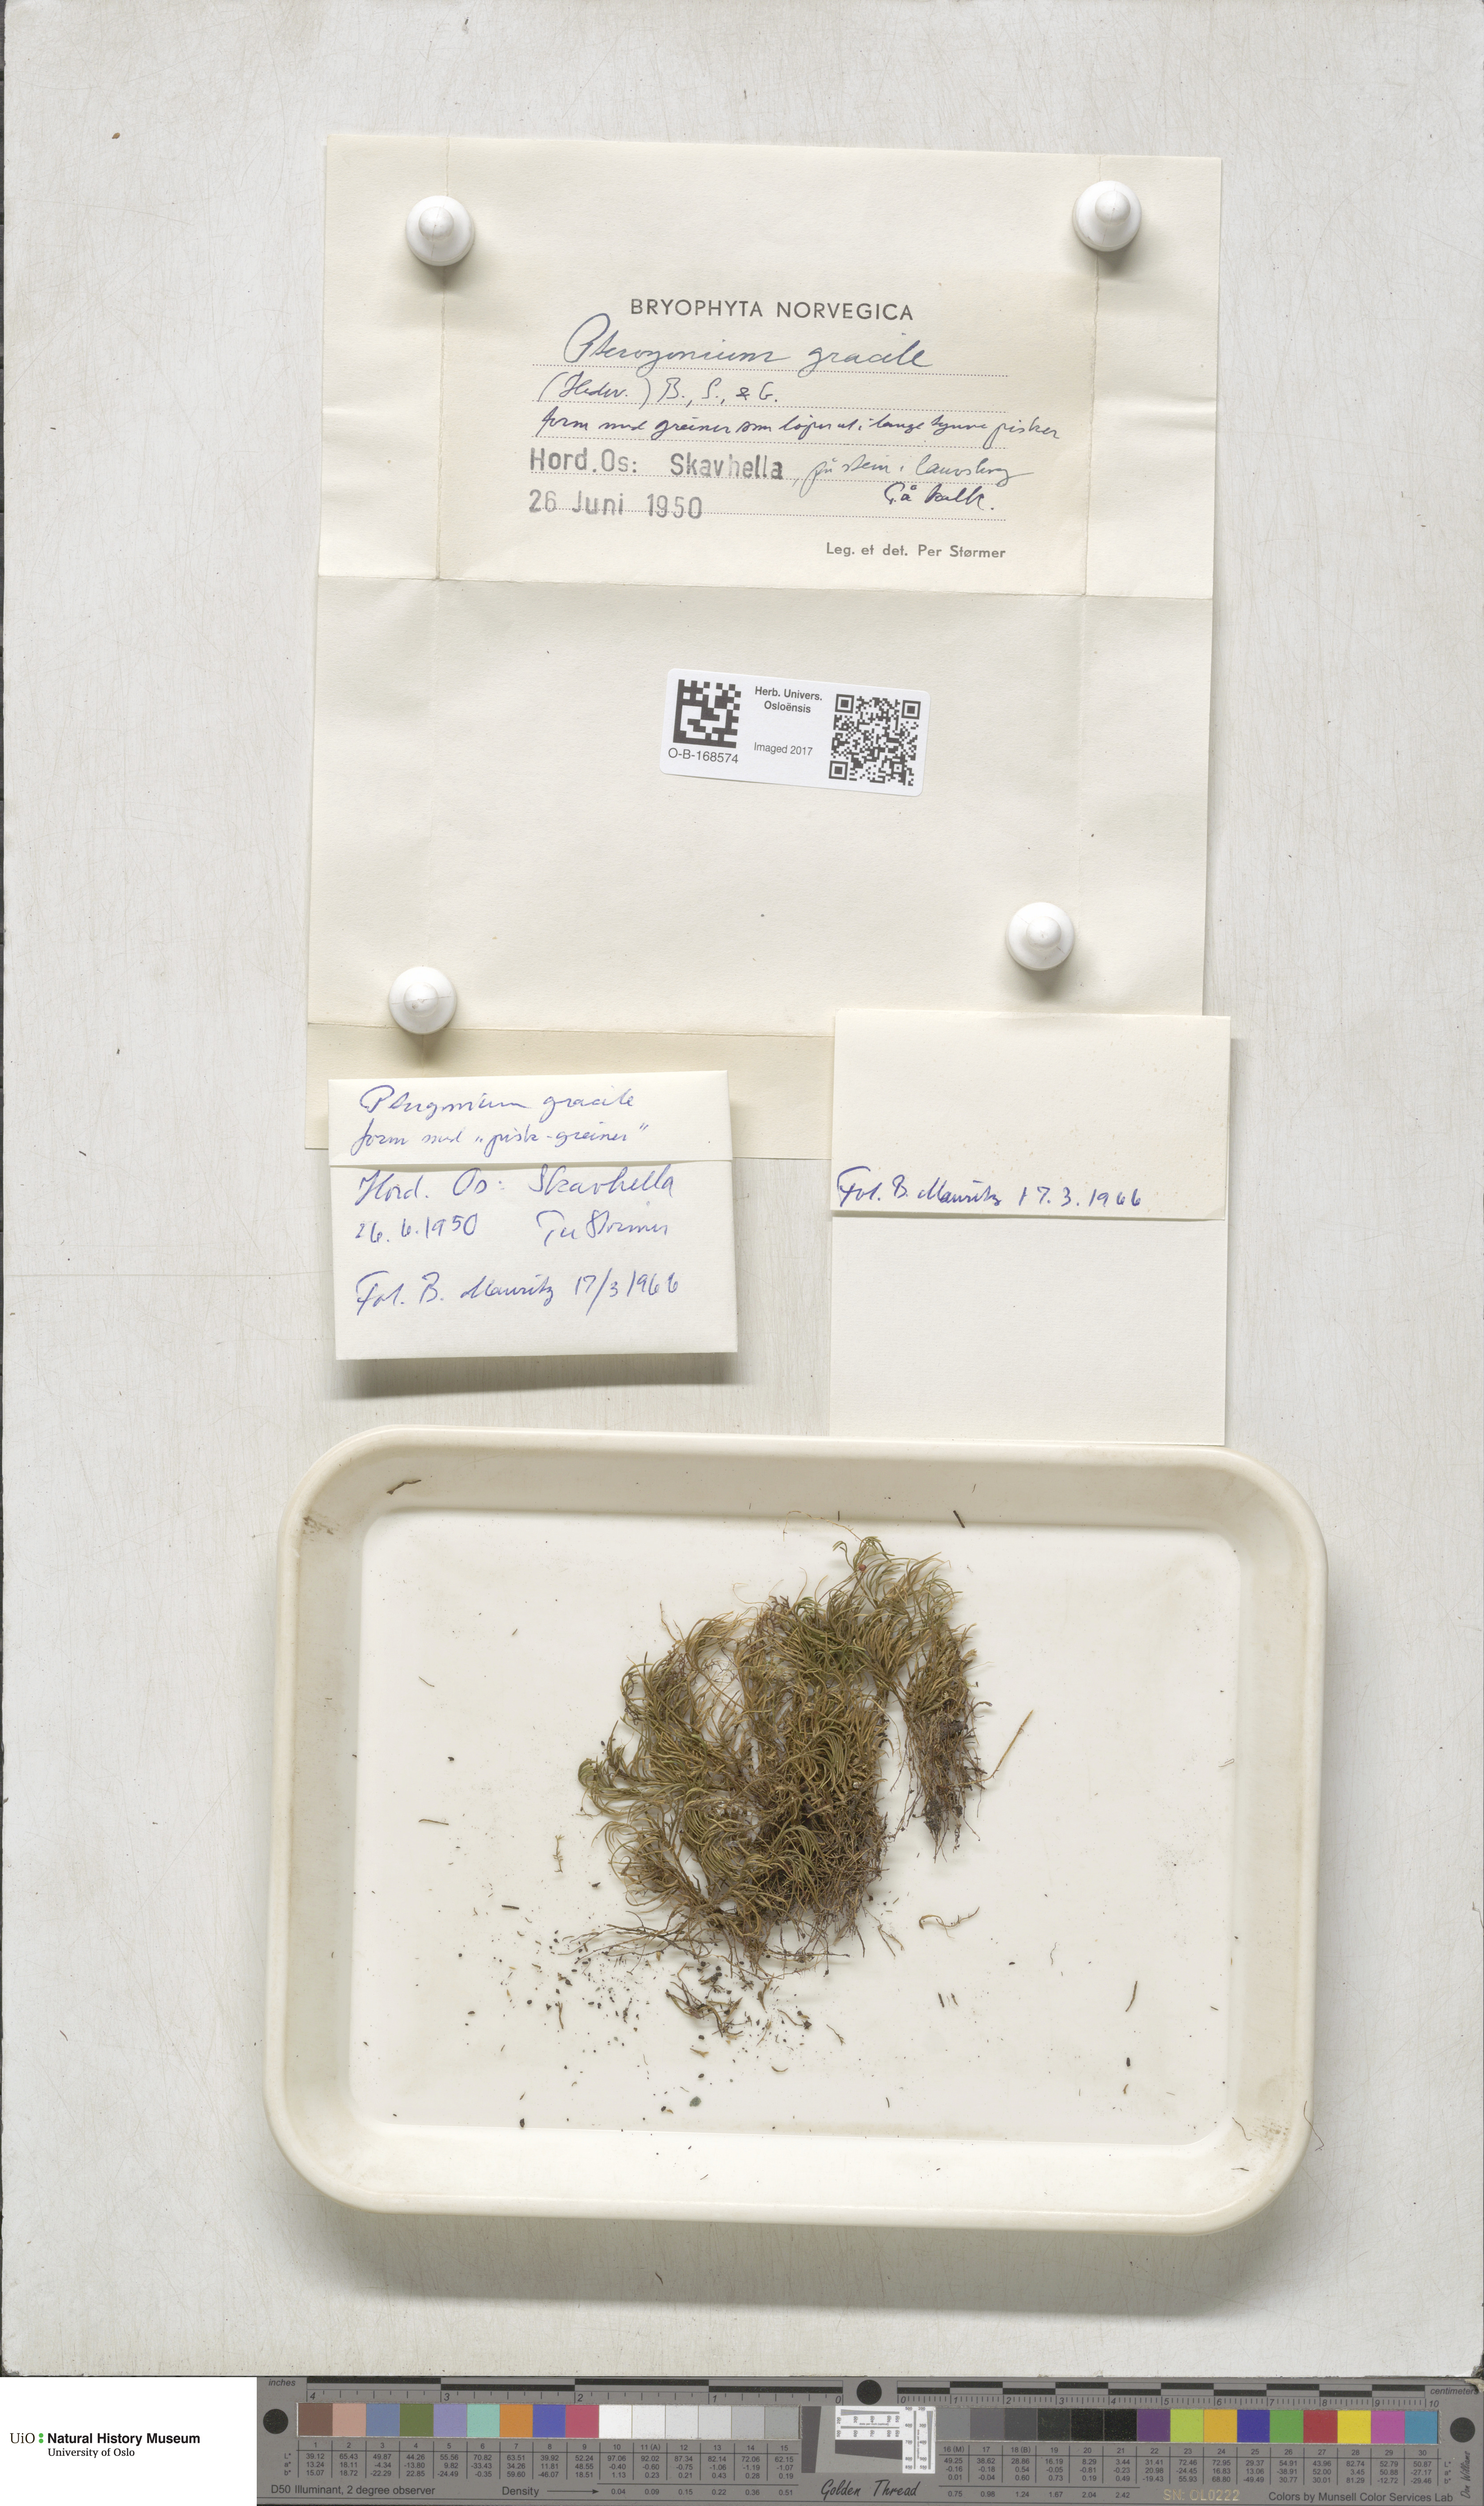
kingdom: Plantae
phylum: Bryophyta
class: Bryopsida
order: Hypnales
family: Lembophyllaceae
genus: Nogopterium
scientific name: Nogopterium gracile
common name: Bird's-foot wing-moss
